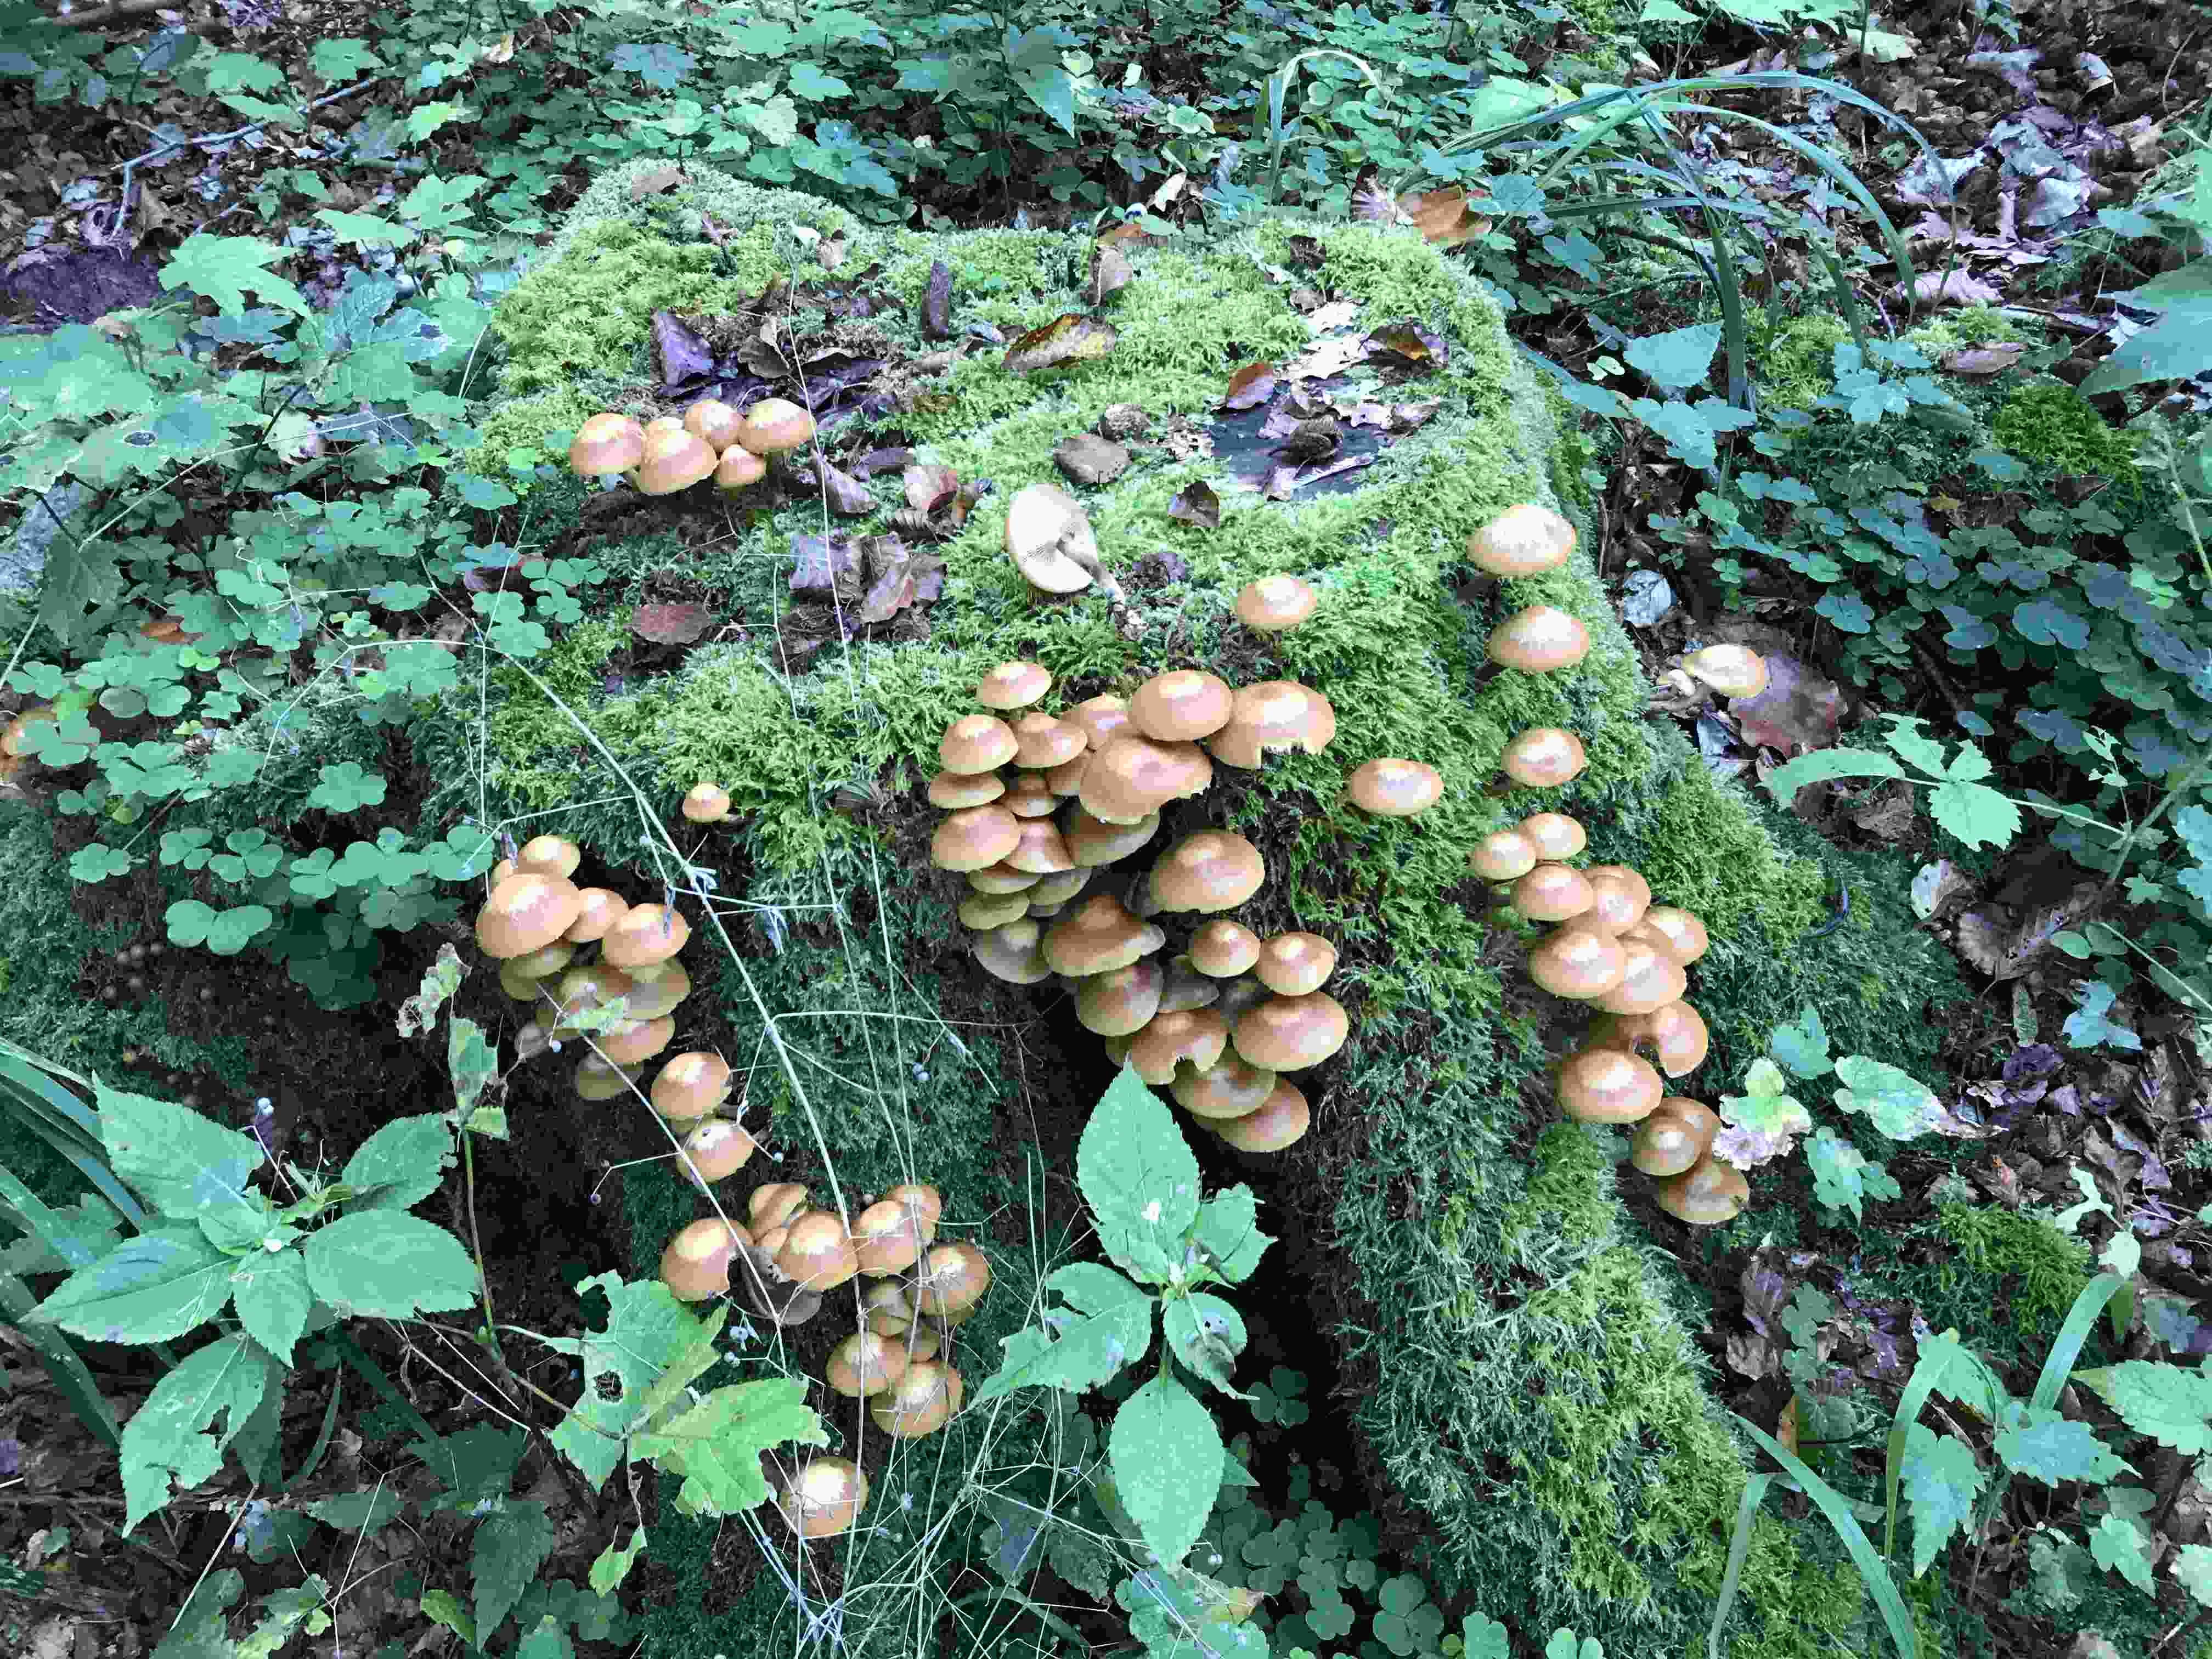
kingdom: Fungi
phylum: Basidiomycota
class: Agaricomycetes
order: Agaricales
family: Strophariaceae
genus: Kuehneromyces
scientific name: Kuehneromyces mutabilis
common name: foranderlig skælhat
